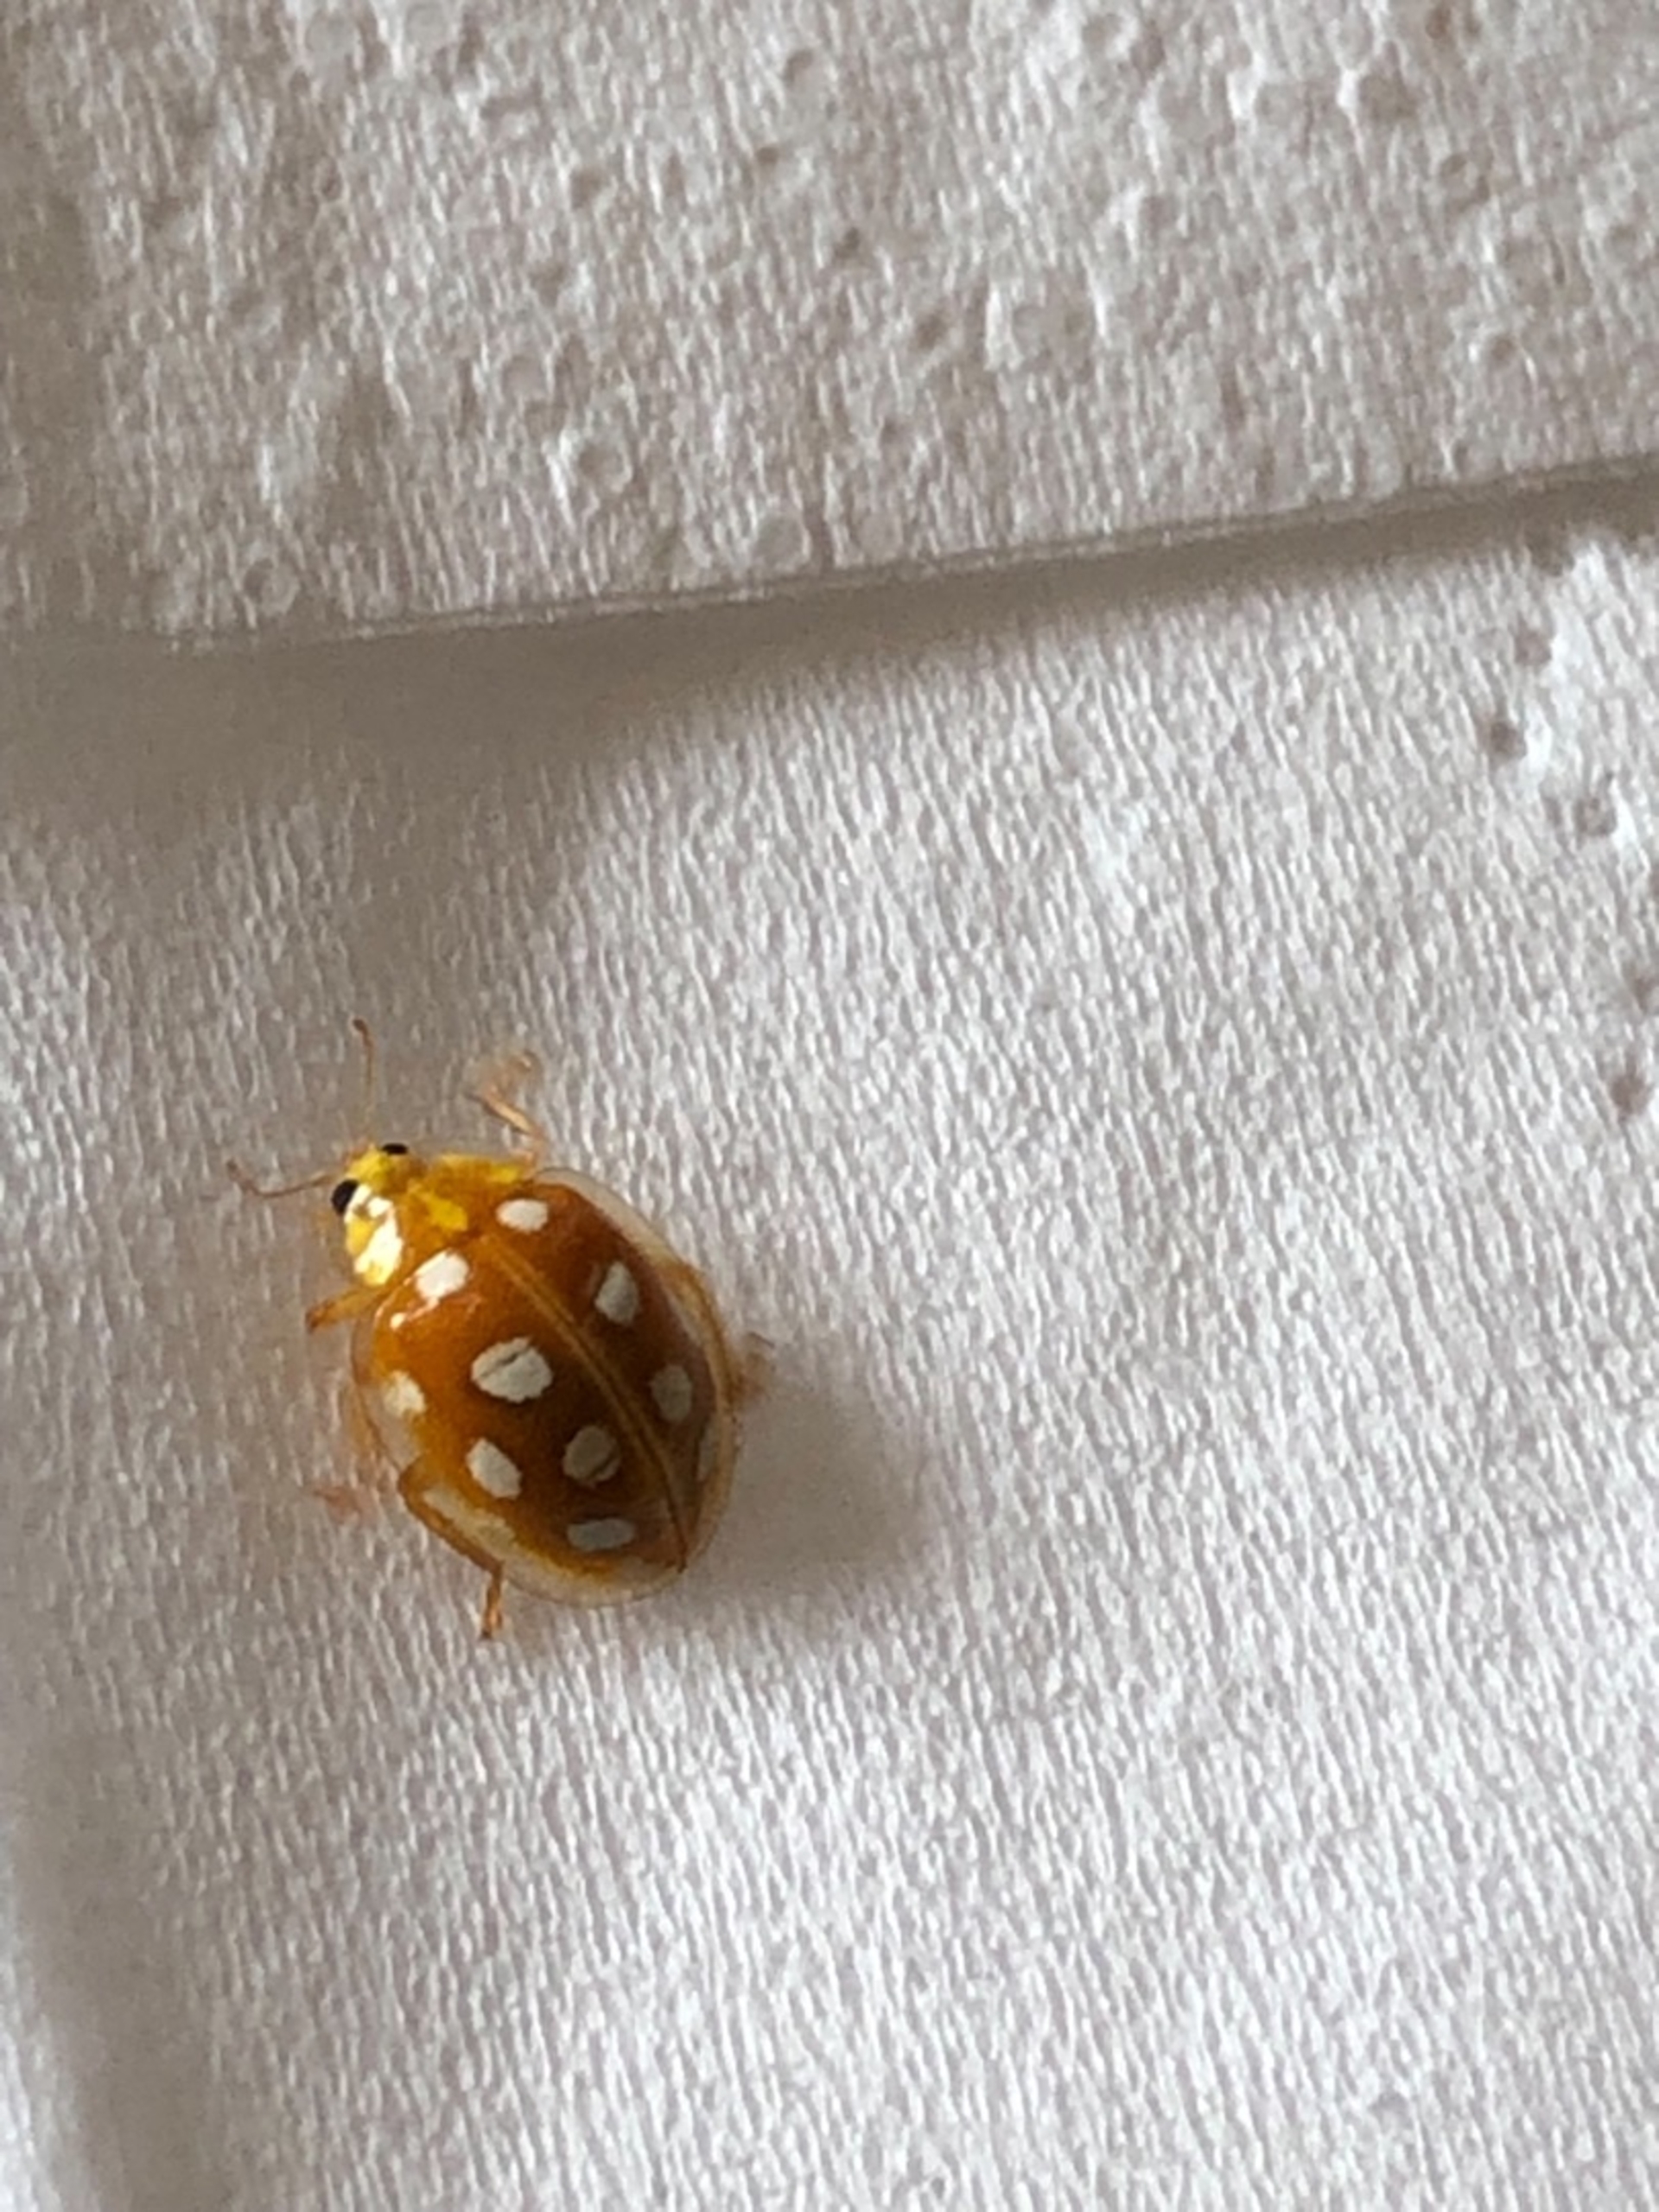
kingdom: Animalia
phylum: Arthropoda
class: Insecta
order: Coleoptera
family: Coccinellidae
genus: Halyzia
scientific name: Halyzia sedecimguttata
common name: Sekstenplettet mariehøne
